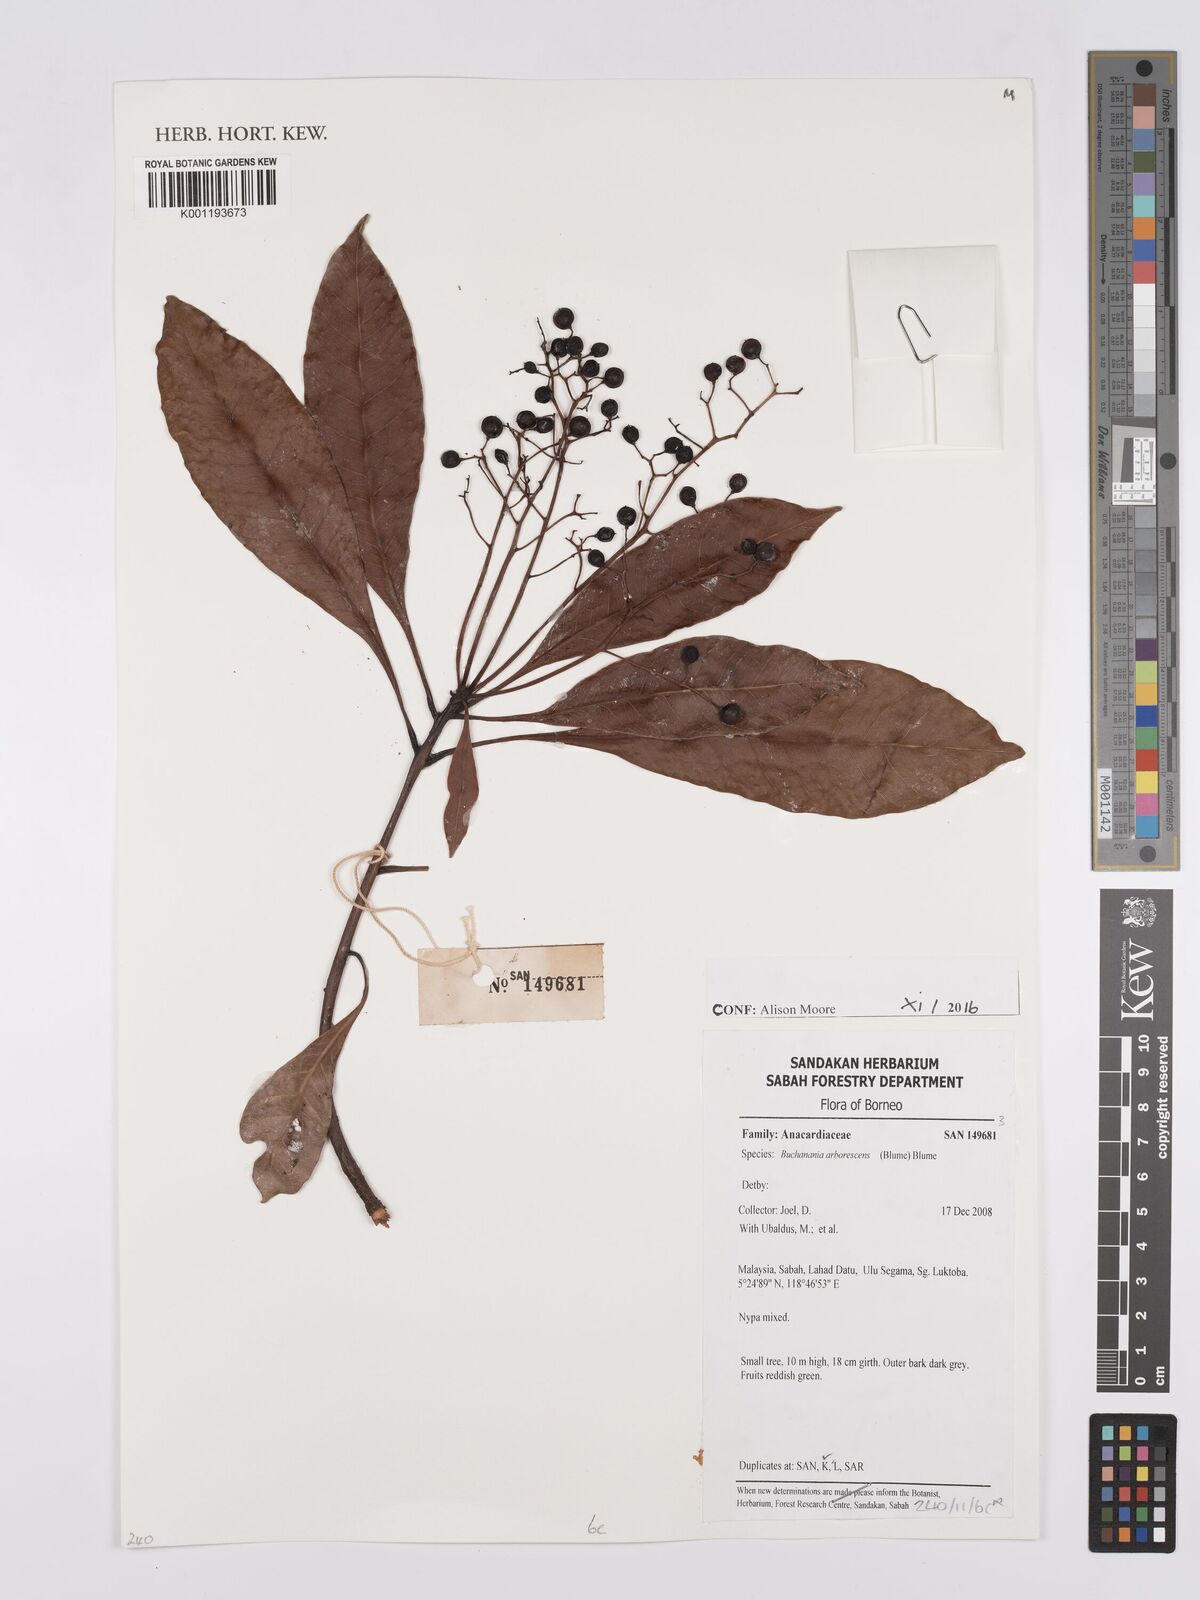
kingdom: Plantae
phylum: Tracheophyta
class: Magnoliopsida
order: Sapindales
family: Anacardiaceae
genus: Buchanania
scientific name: Buchanania arborescens
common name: Sparrow’s mango
